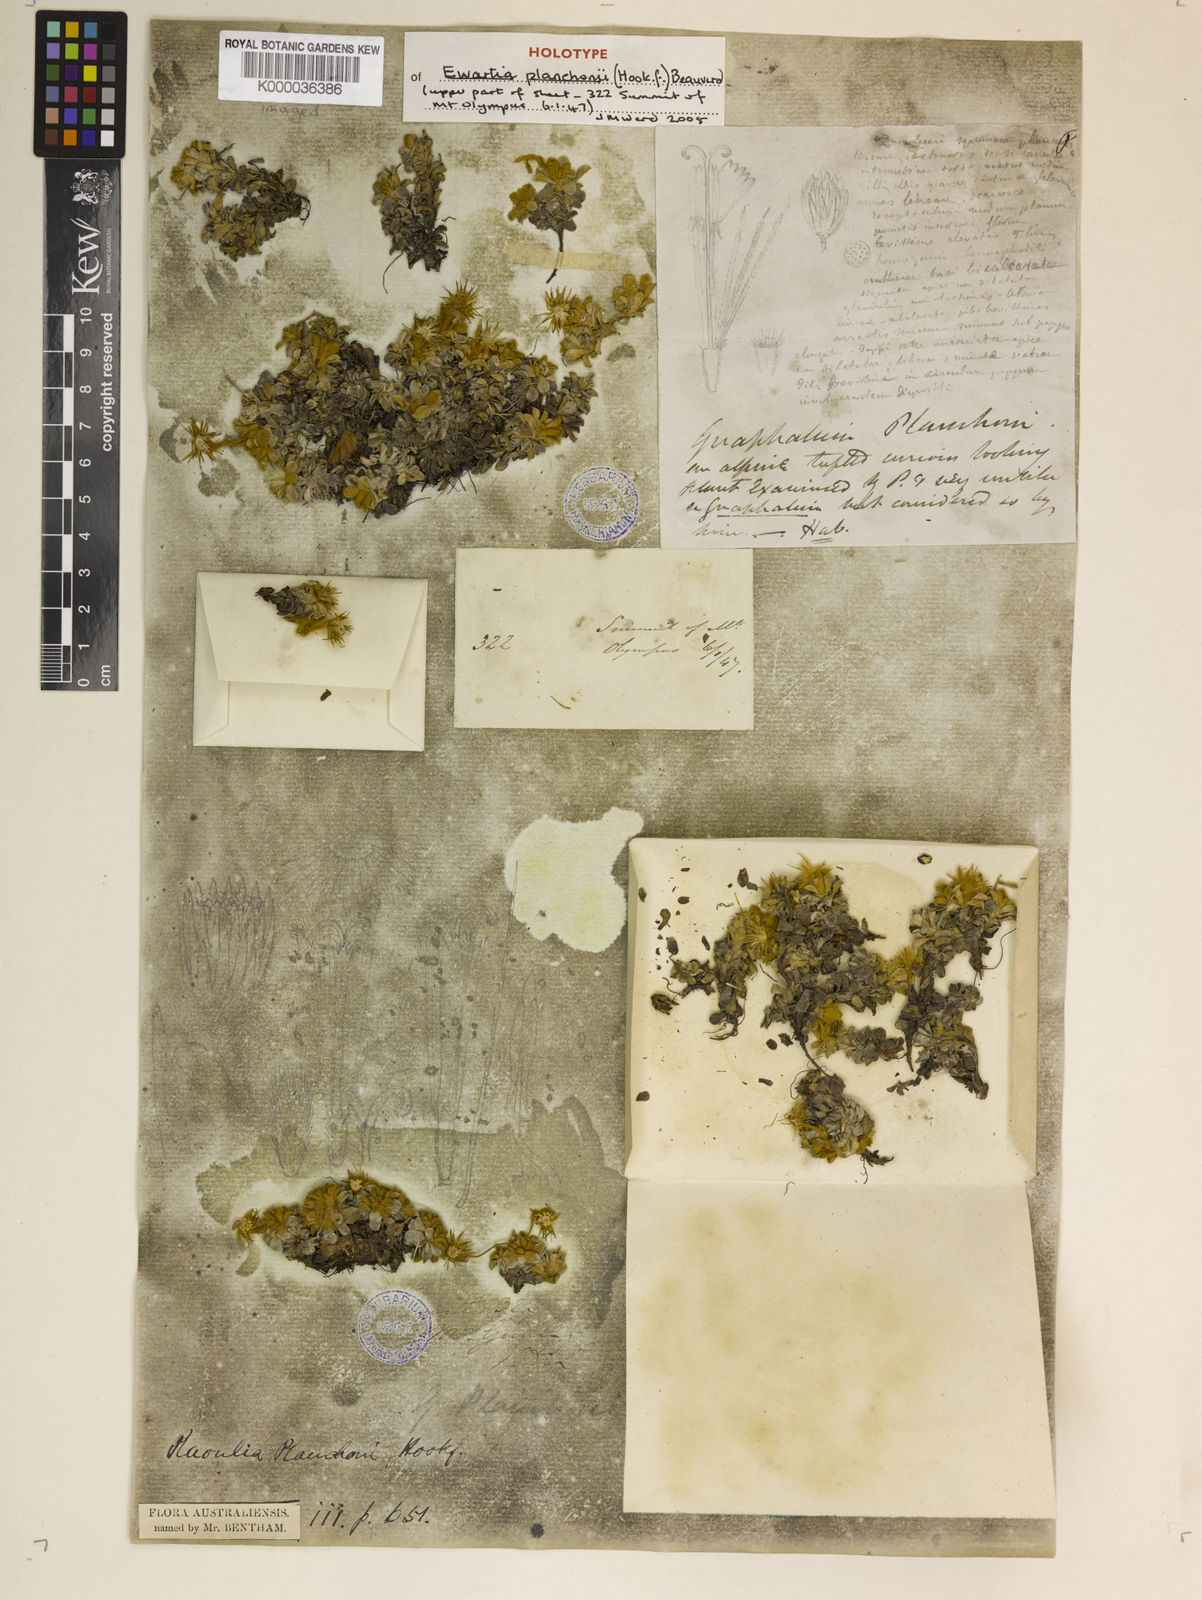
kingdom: Plantae
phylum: Tracheophyta
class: Magnoliopsida
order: Asterales
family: Asteraceae
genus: Ewartia
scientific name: Ewartia planchonii
